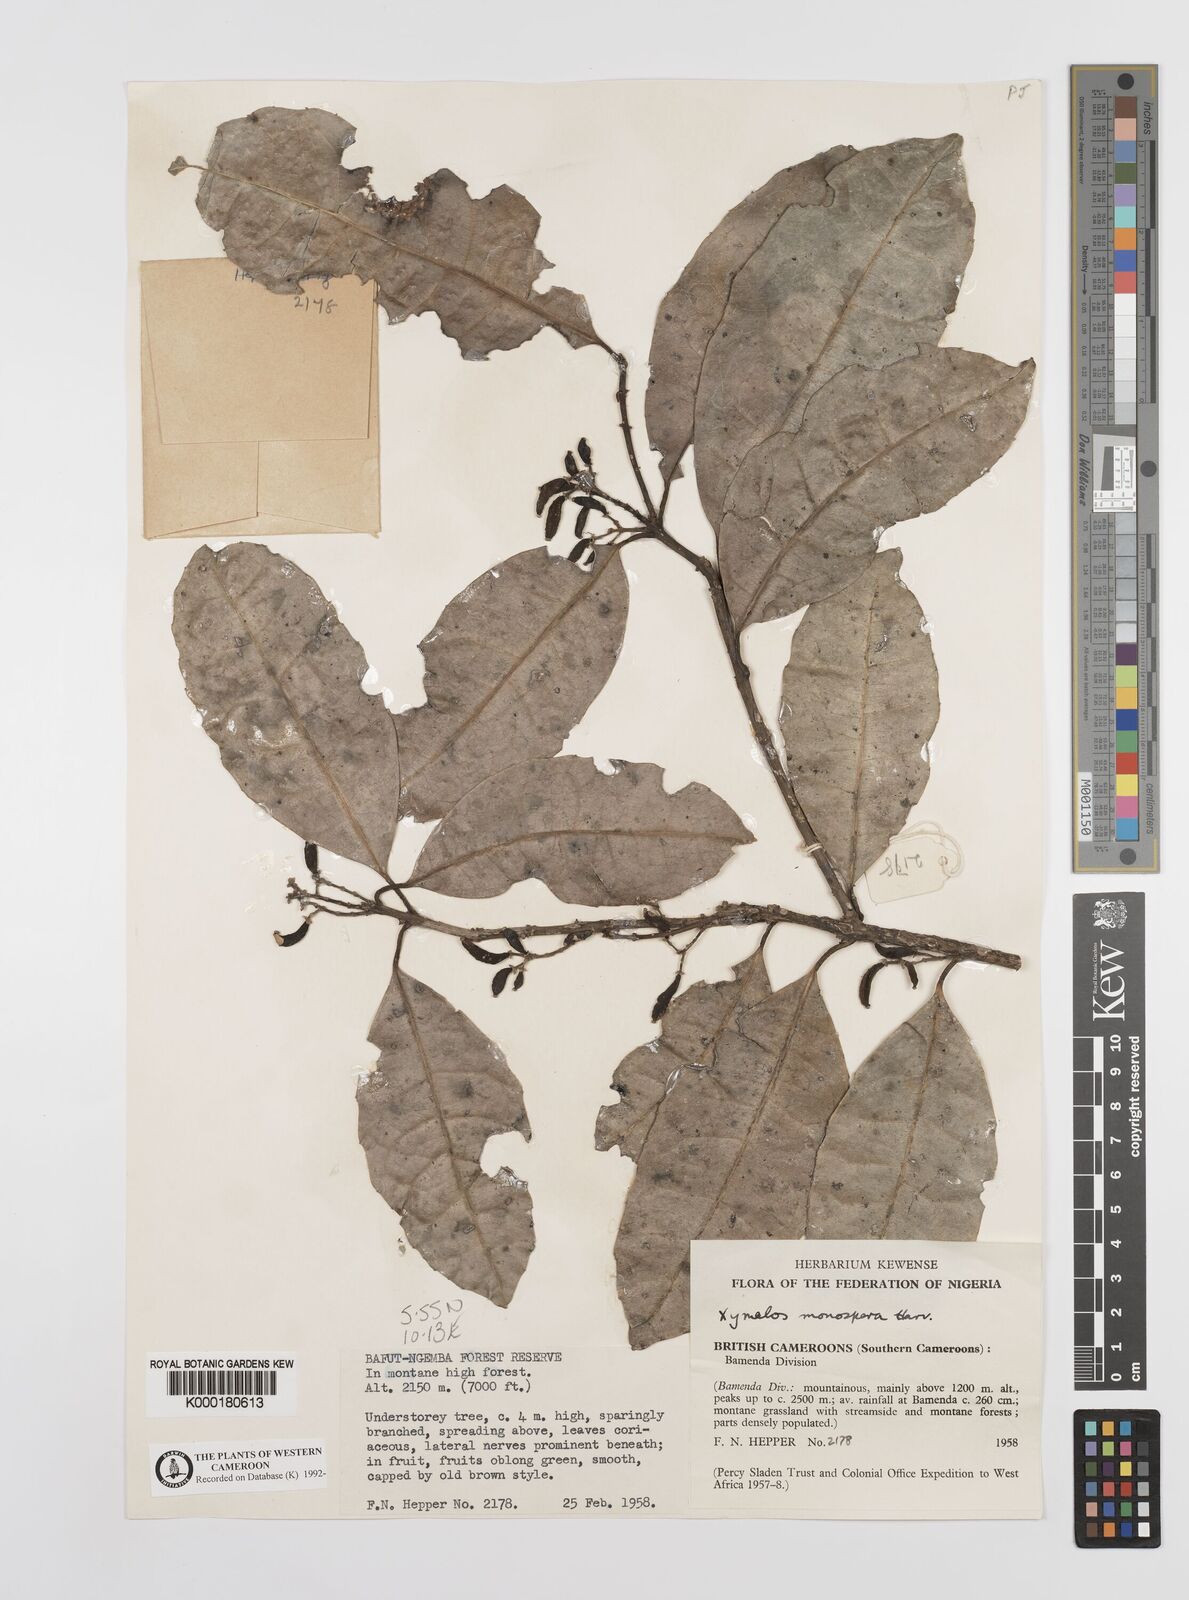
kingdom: Plantae
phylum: Tracheophyta
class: Magnoliopsida
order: Laurales
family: Monimiaceae
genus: Xymalos
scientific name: Xymalos
